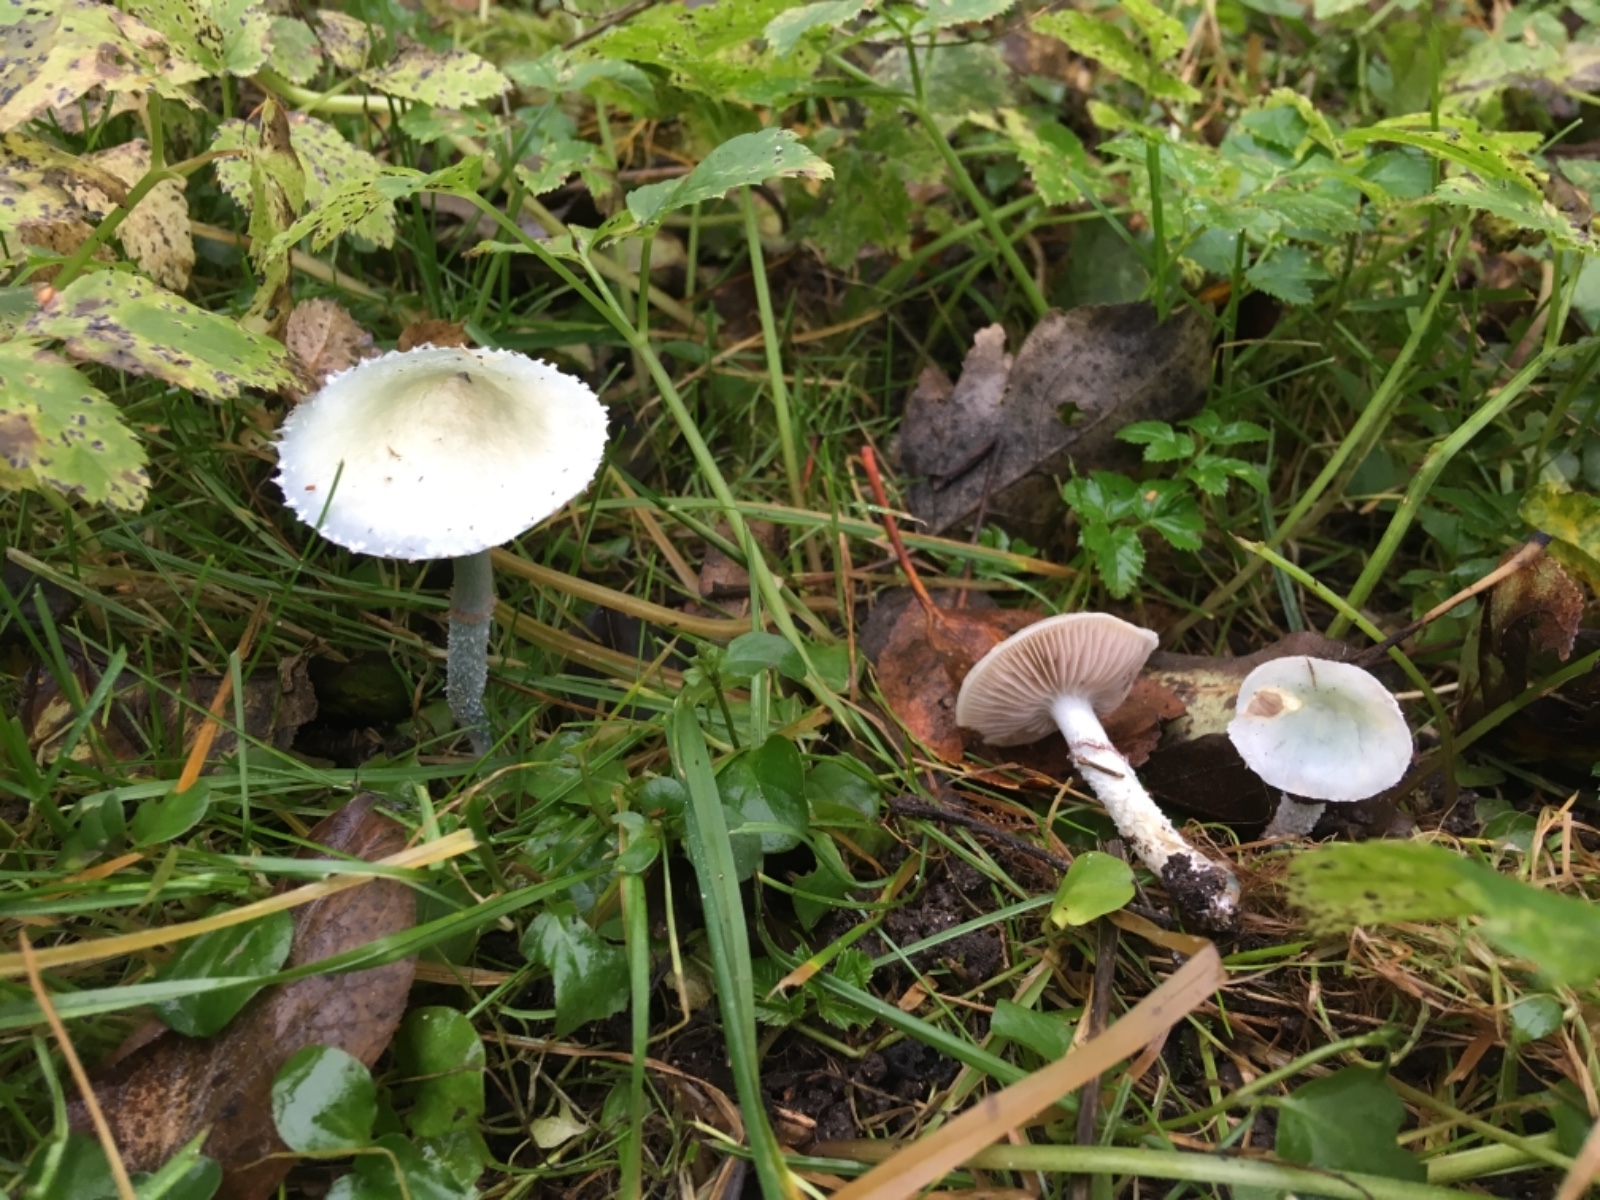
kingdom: Fungi
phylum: Basidiomycota
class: Agaricomycetes
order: Agaricales
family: Strophariaceae
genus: Stropharia
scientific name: Stropharia cyanea
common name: blågrøn bredblad
